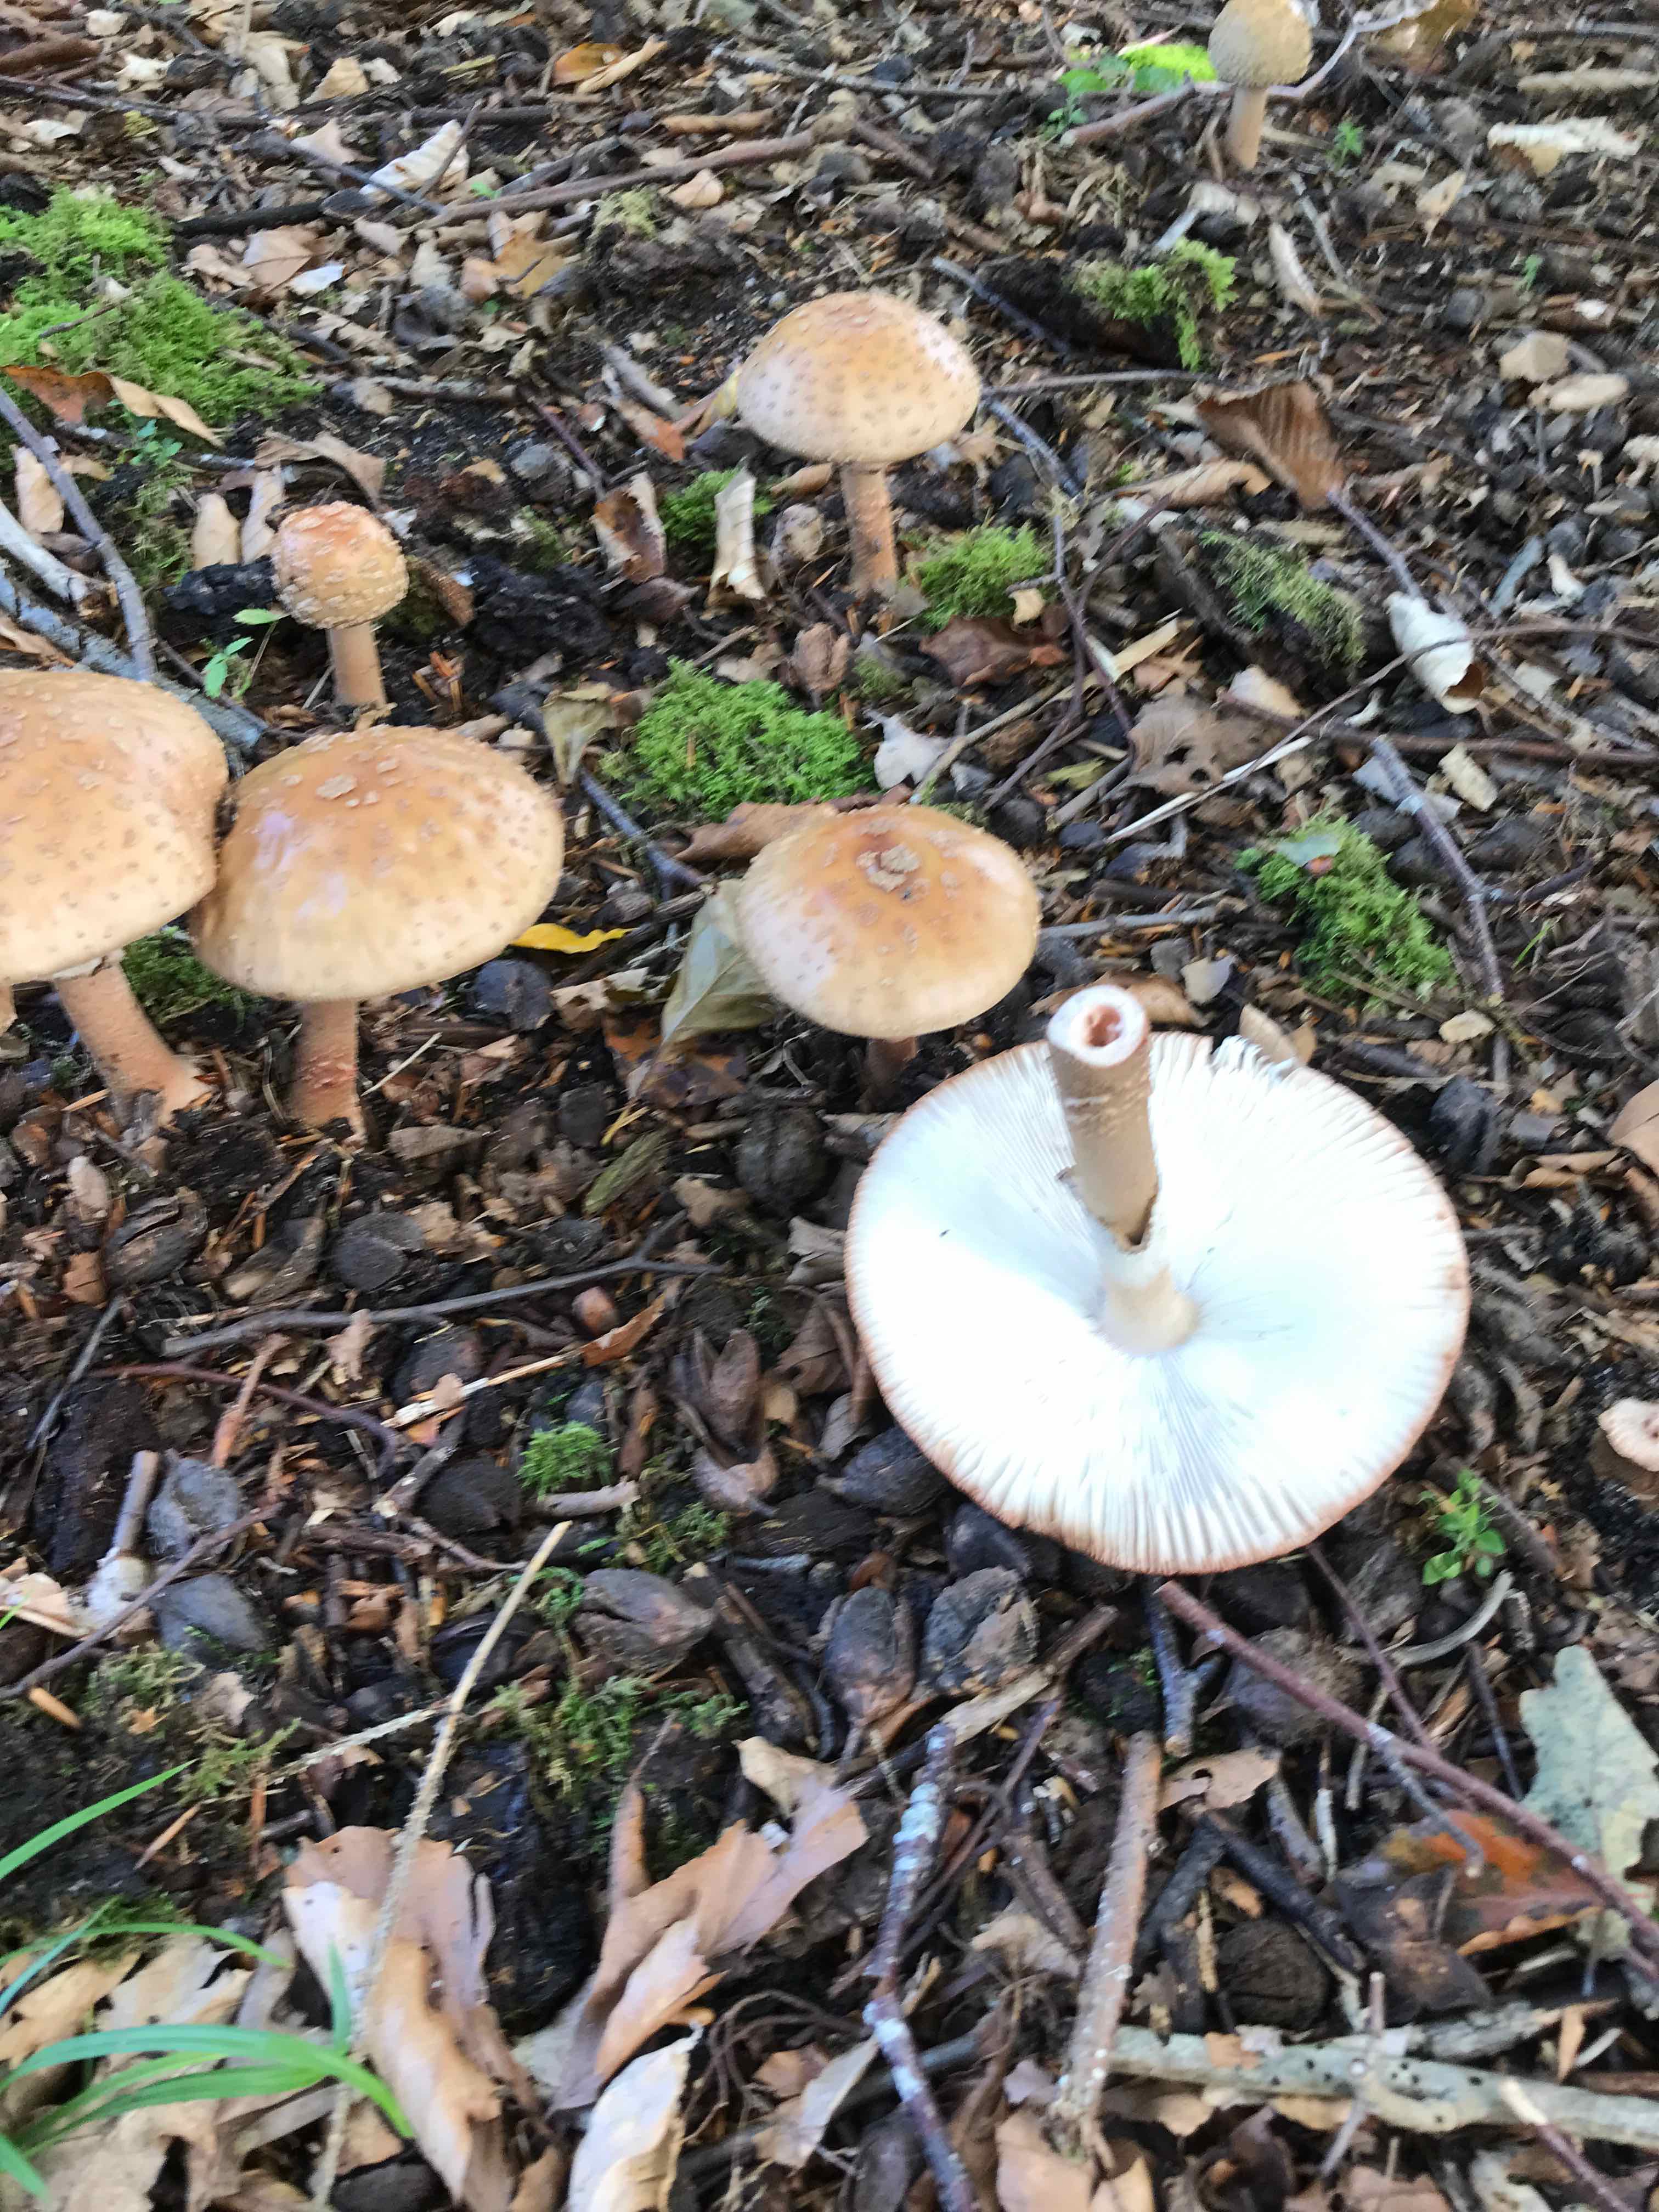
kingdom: Fungi
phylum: Basidiomycota
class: Agaricomycetes
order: Agaricales
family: Amanitaceae
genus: Amanita
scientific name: Amanita rubescens
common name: rødmende fluesvamp
